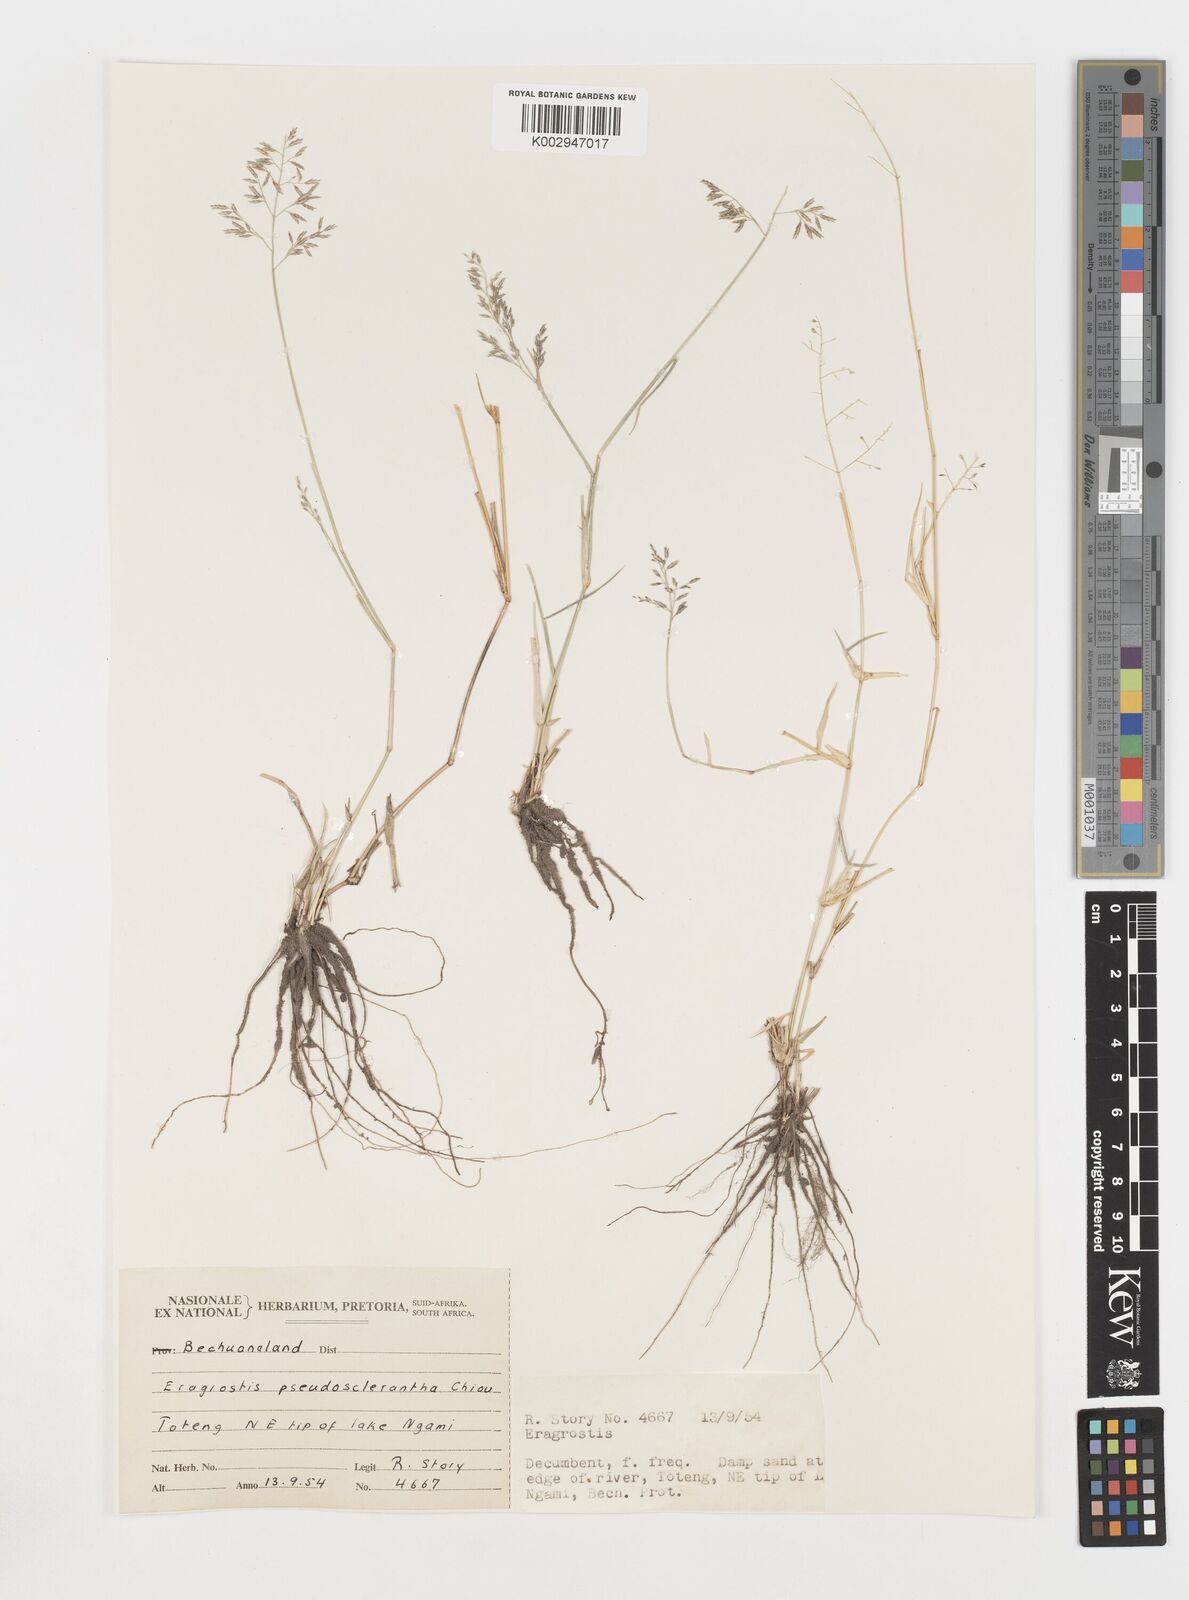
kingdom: Plantae
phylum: Tracheophyta
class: Liliopsida
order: Poales
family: Poaceae
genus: Eragrostis
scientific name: Eragrostis patentipilosa
